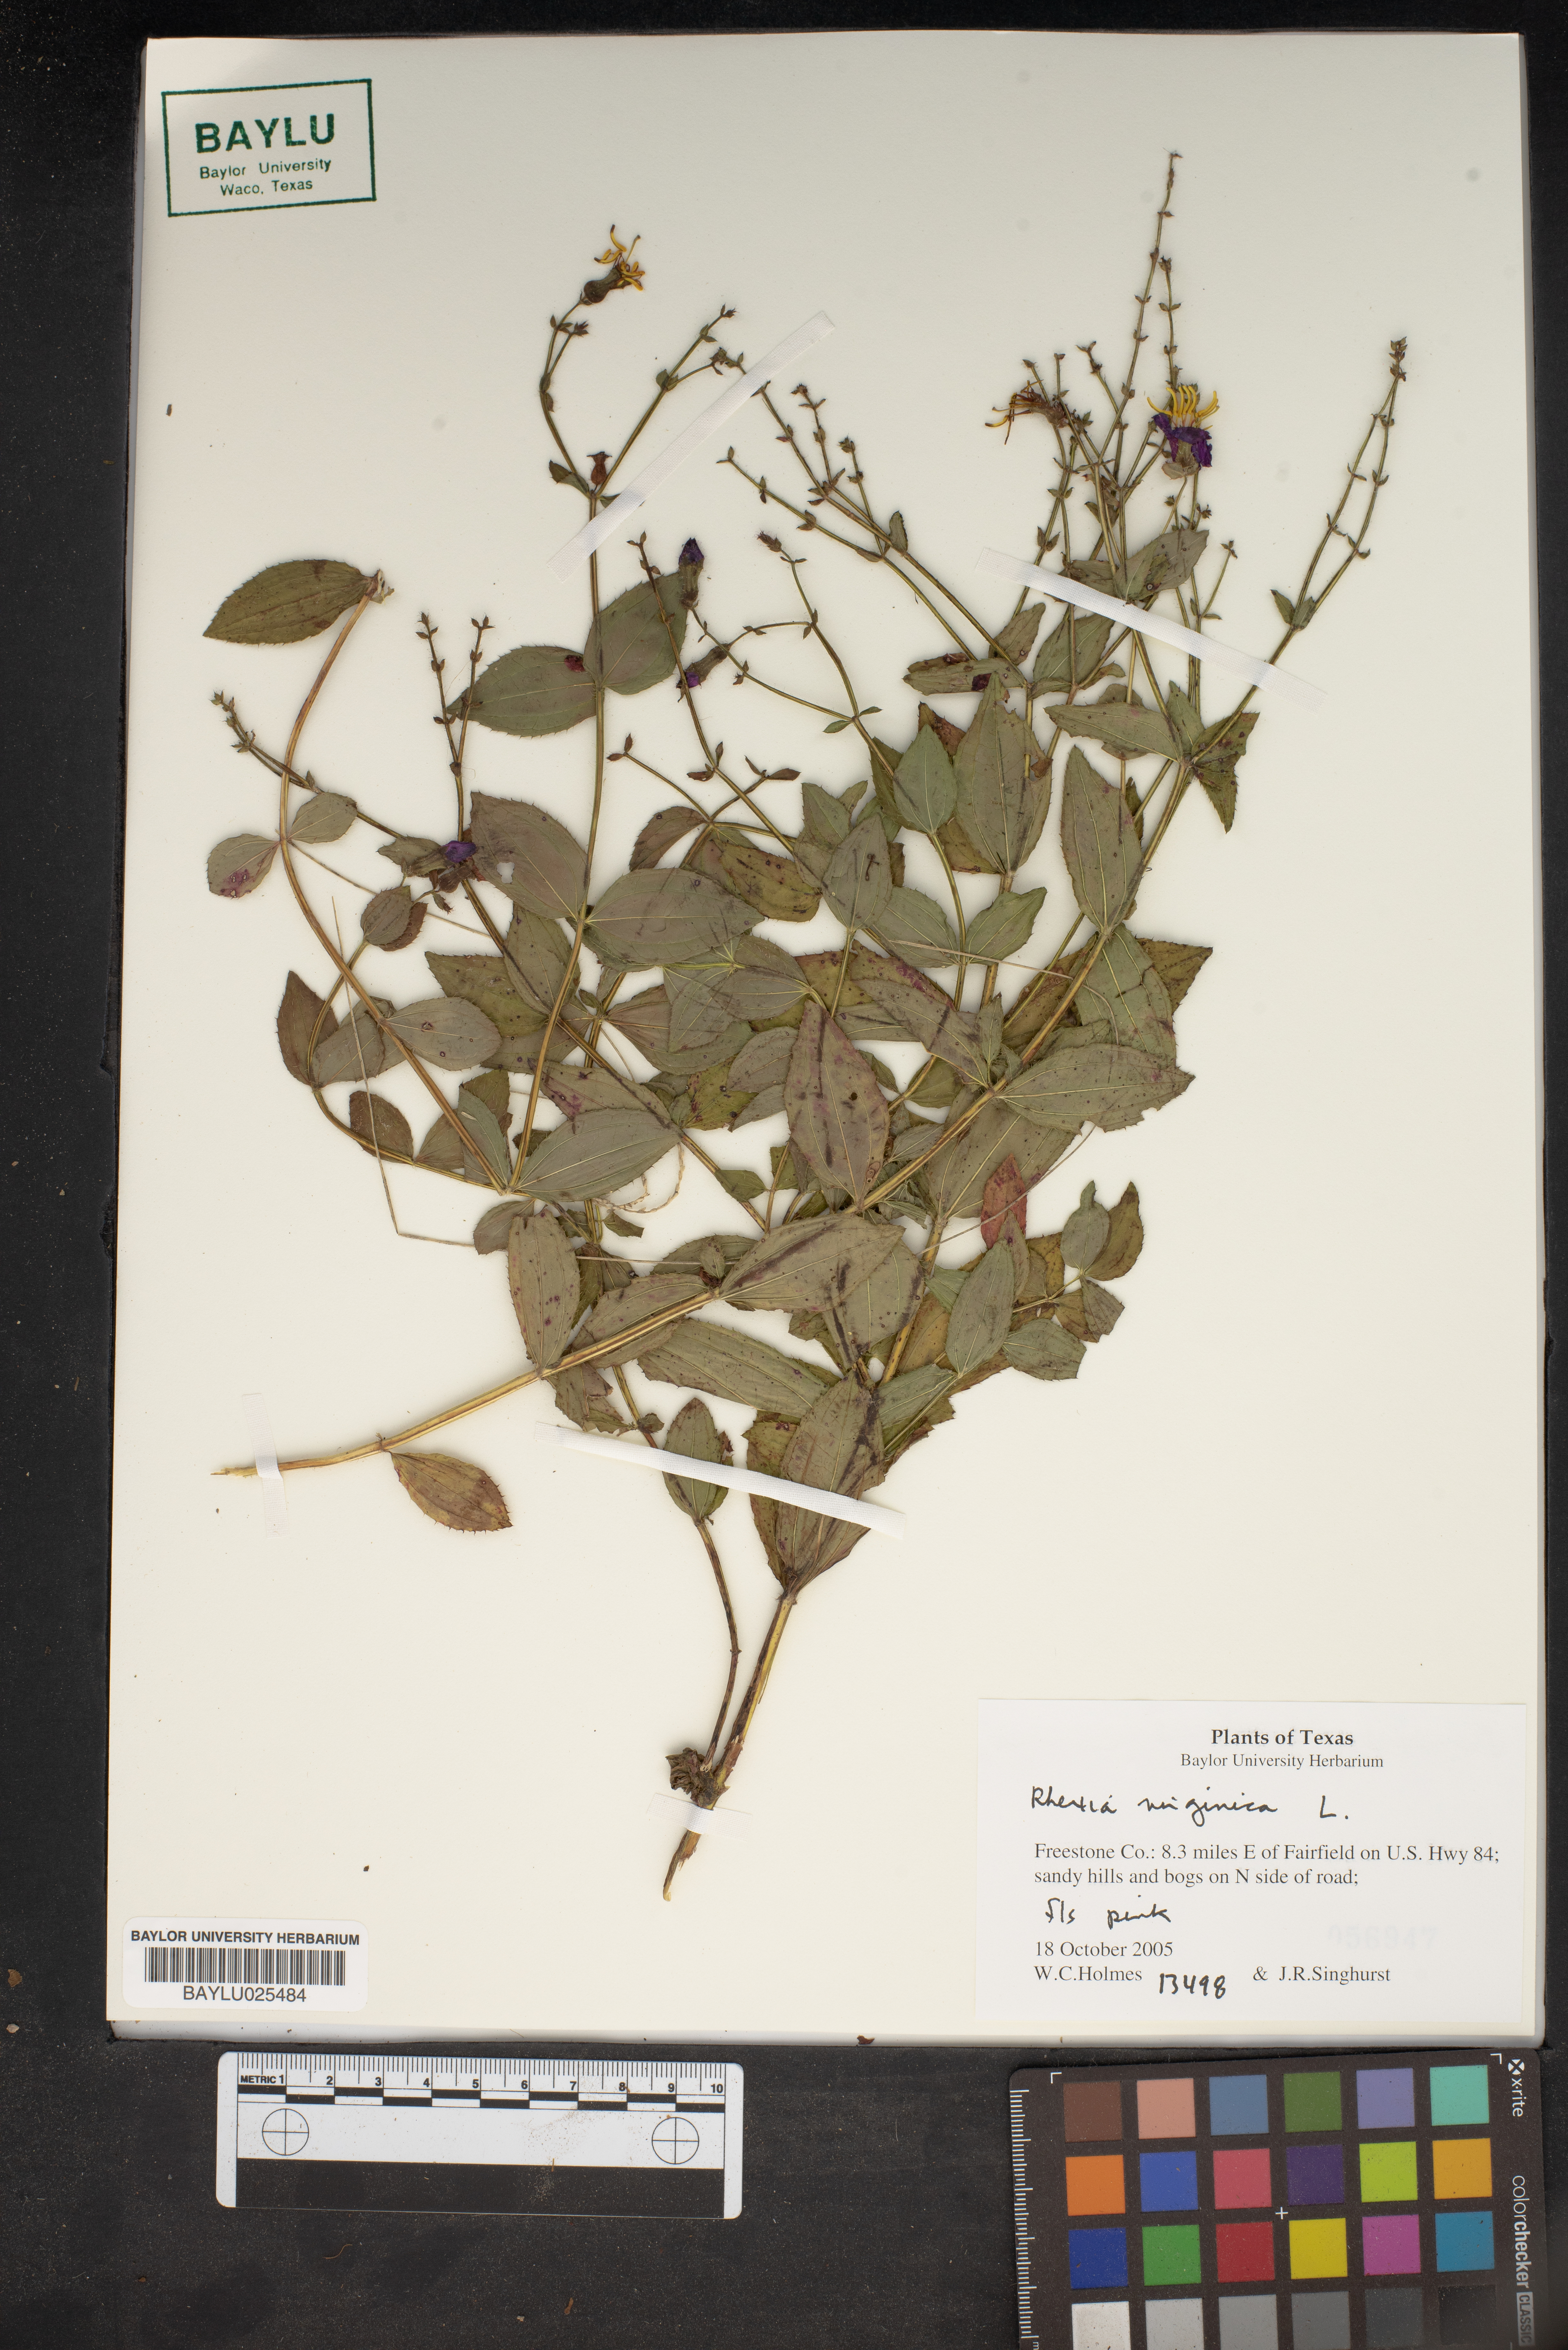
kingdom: Plantae
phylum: Tracheophyta
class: Magnoliopsida
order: Myrtales
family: Melastomataceae
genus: Rhexia
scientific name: Rhexia virginica
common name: Common meadow beauty
